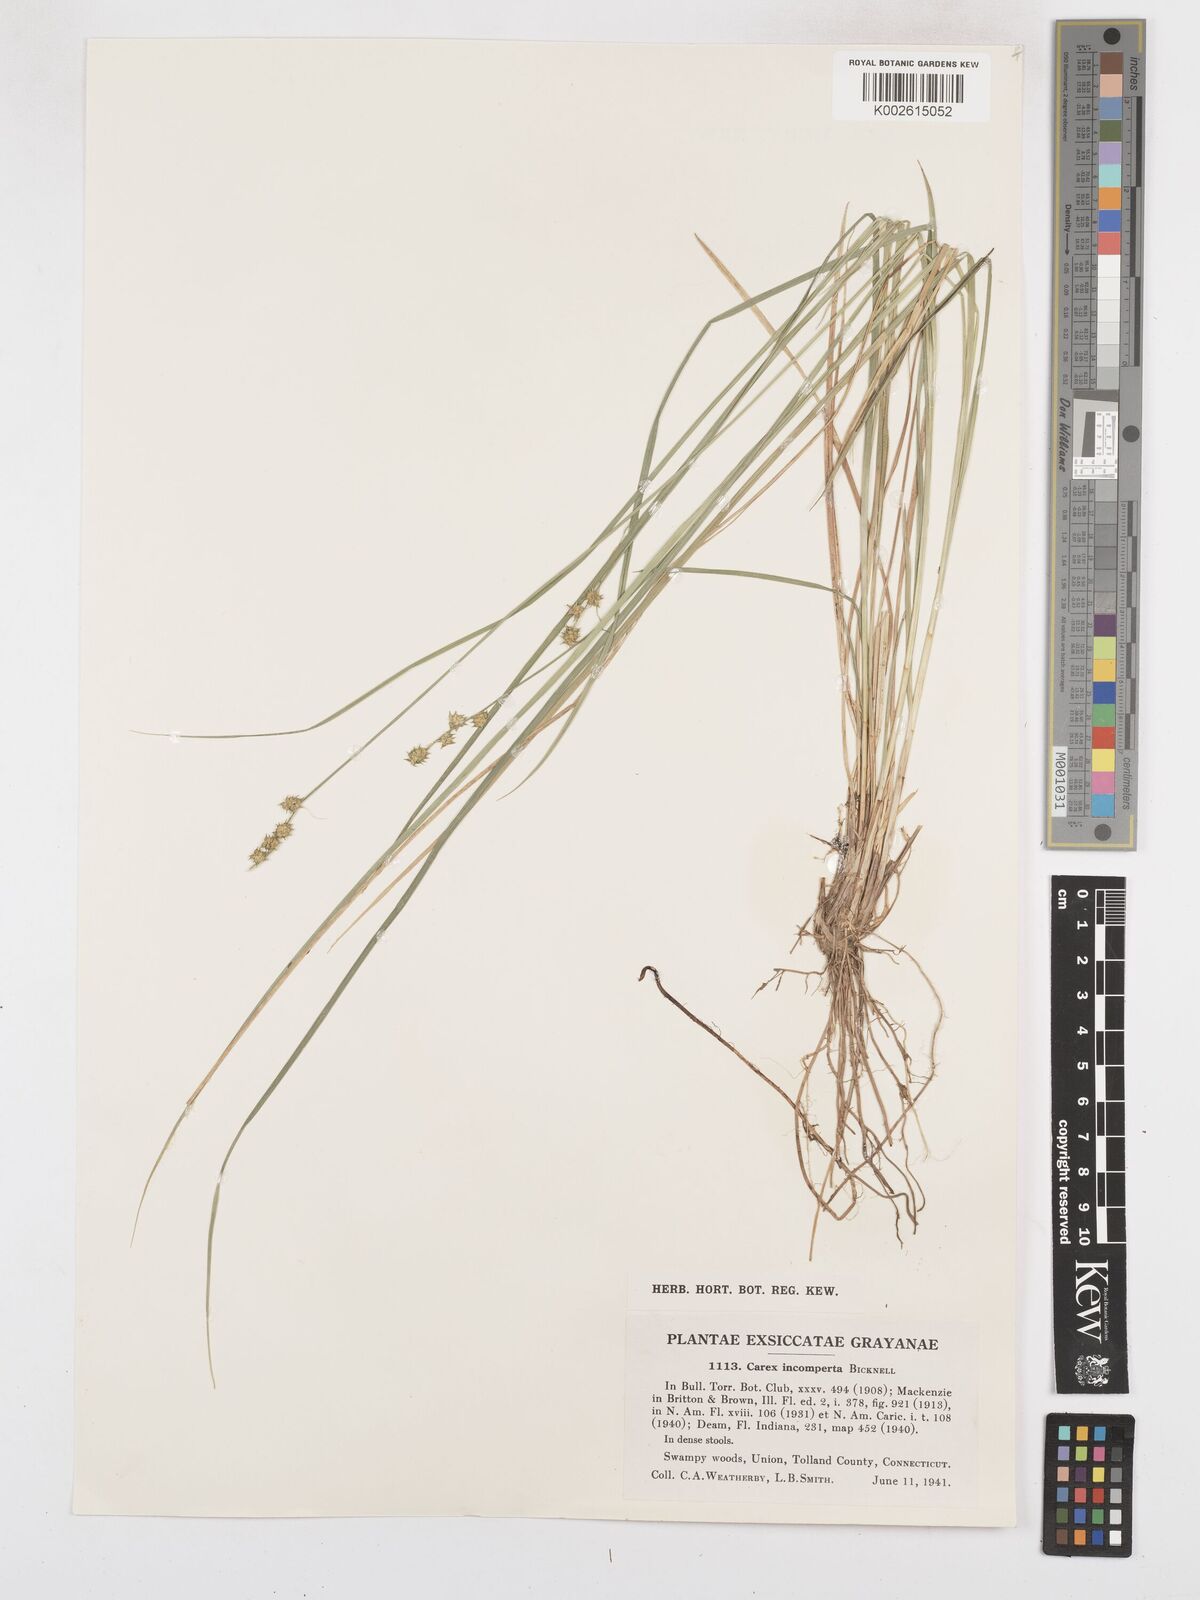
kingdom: Plantae
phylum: Tracheophyta
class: Liliopsida
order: Poales
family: Cyperaceae
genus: Carex
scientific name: Carex atlantica
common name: Atlantic sedge
